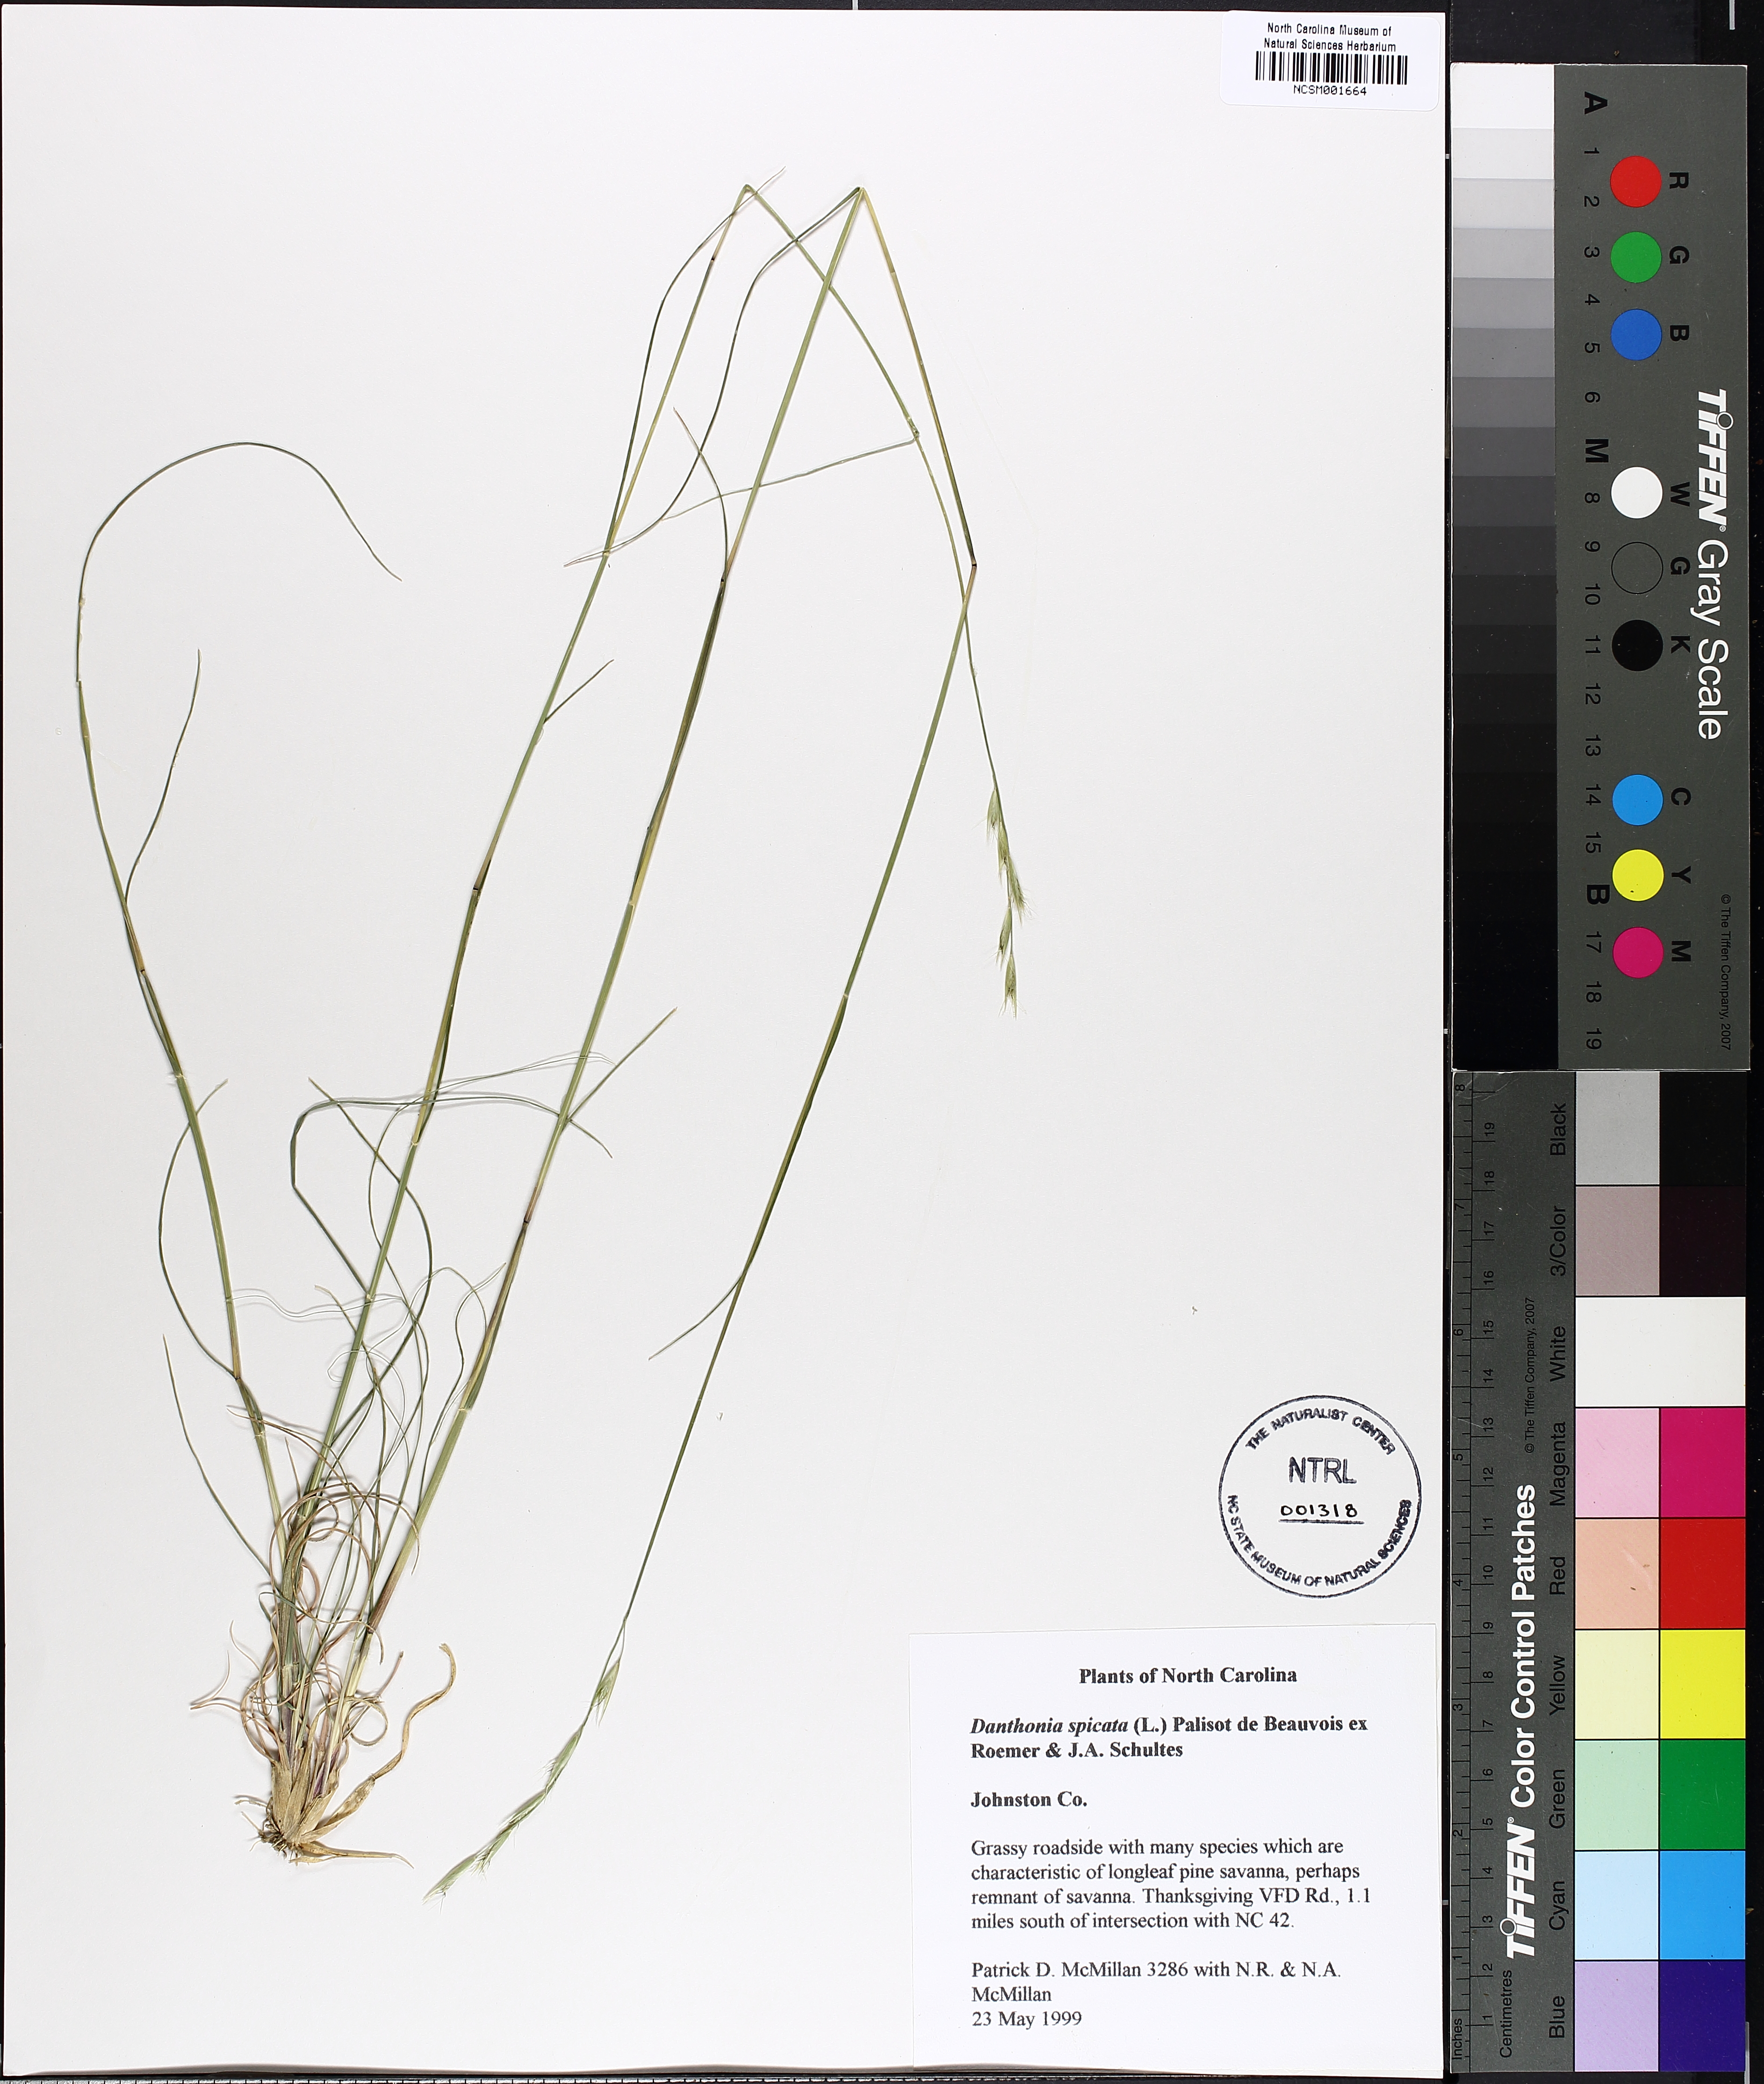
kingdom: Plantae
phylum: Tracheophyta
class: Liliopsida
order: Poales
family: Poaceae
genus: Danthonia
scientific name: Danthonia spicata
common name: Common wild oatgrass
